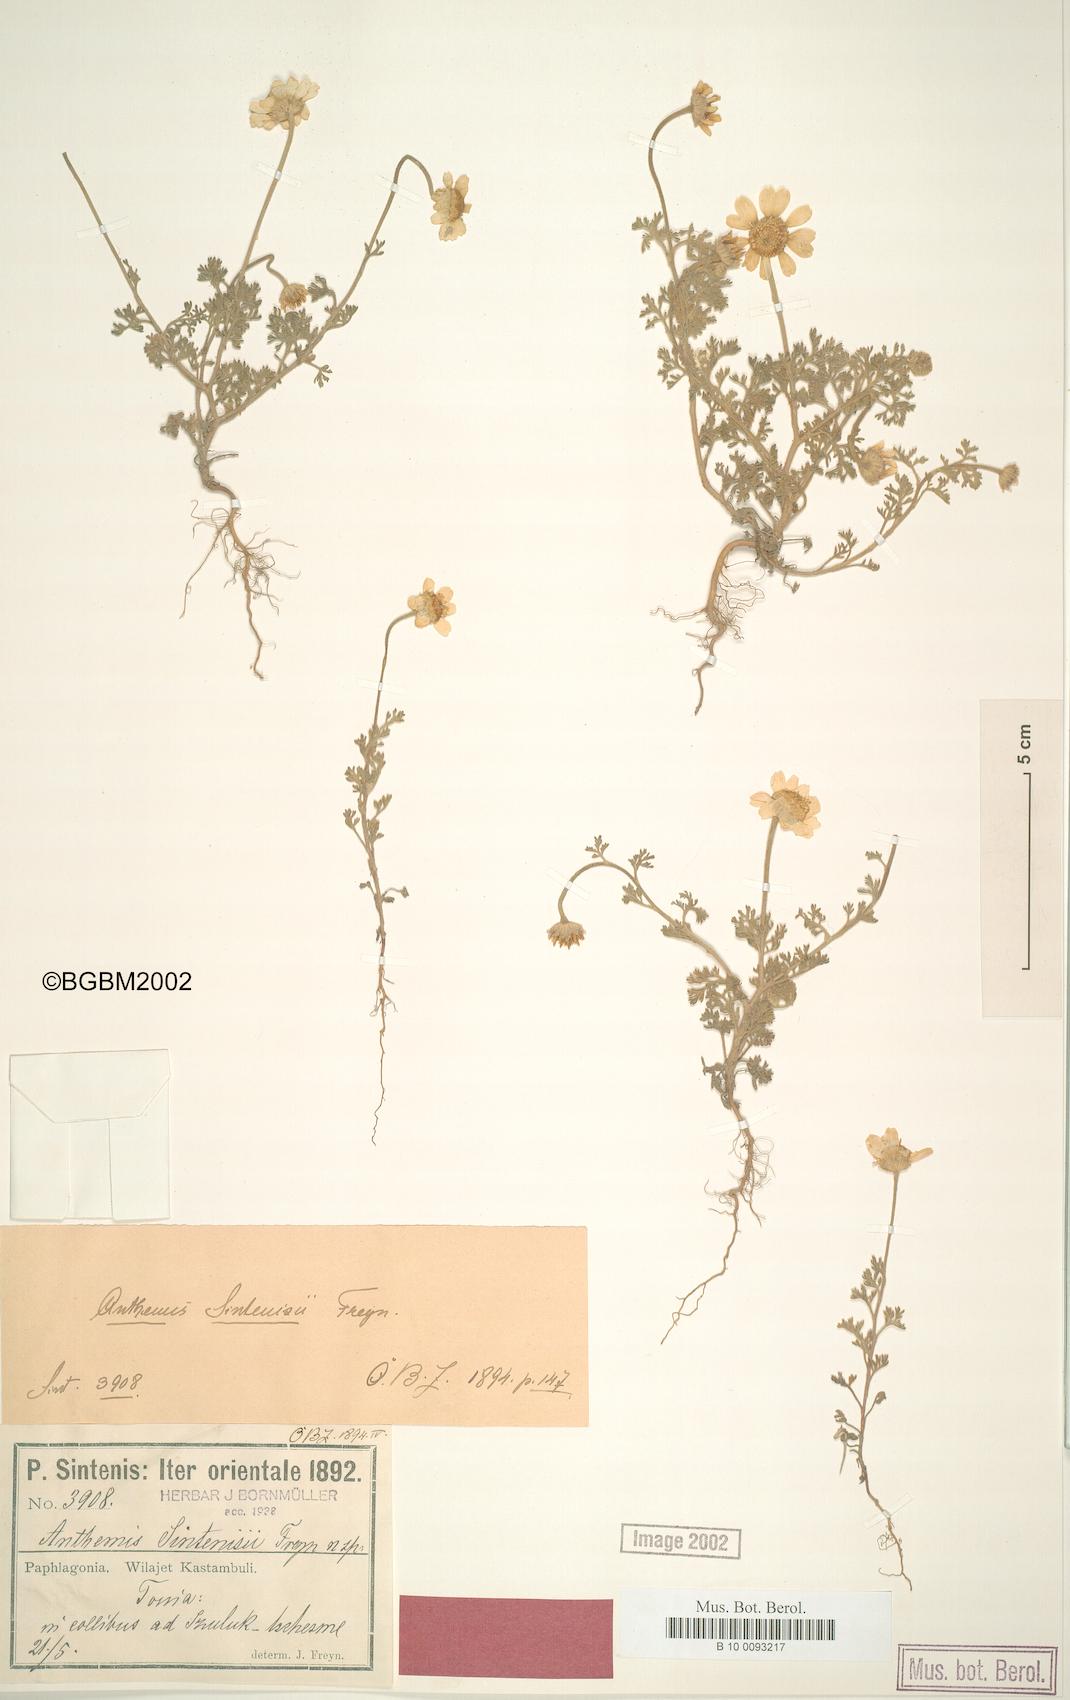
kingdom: Plantae
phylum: Tracheophyta
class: Magnoliopsida
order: Asterales
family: Asteraceae
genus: Anthemis
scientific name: Anthemis sintenisii
